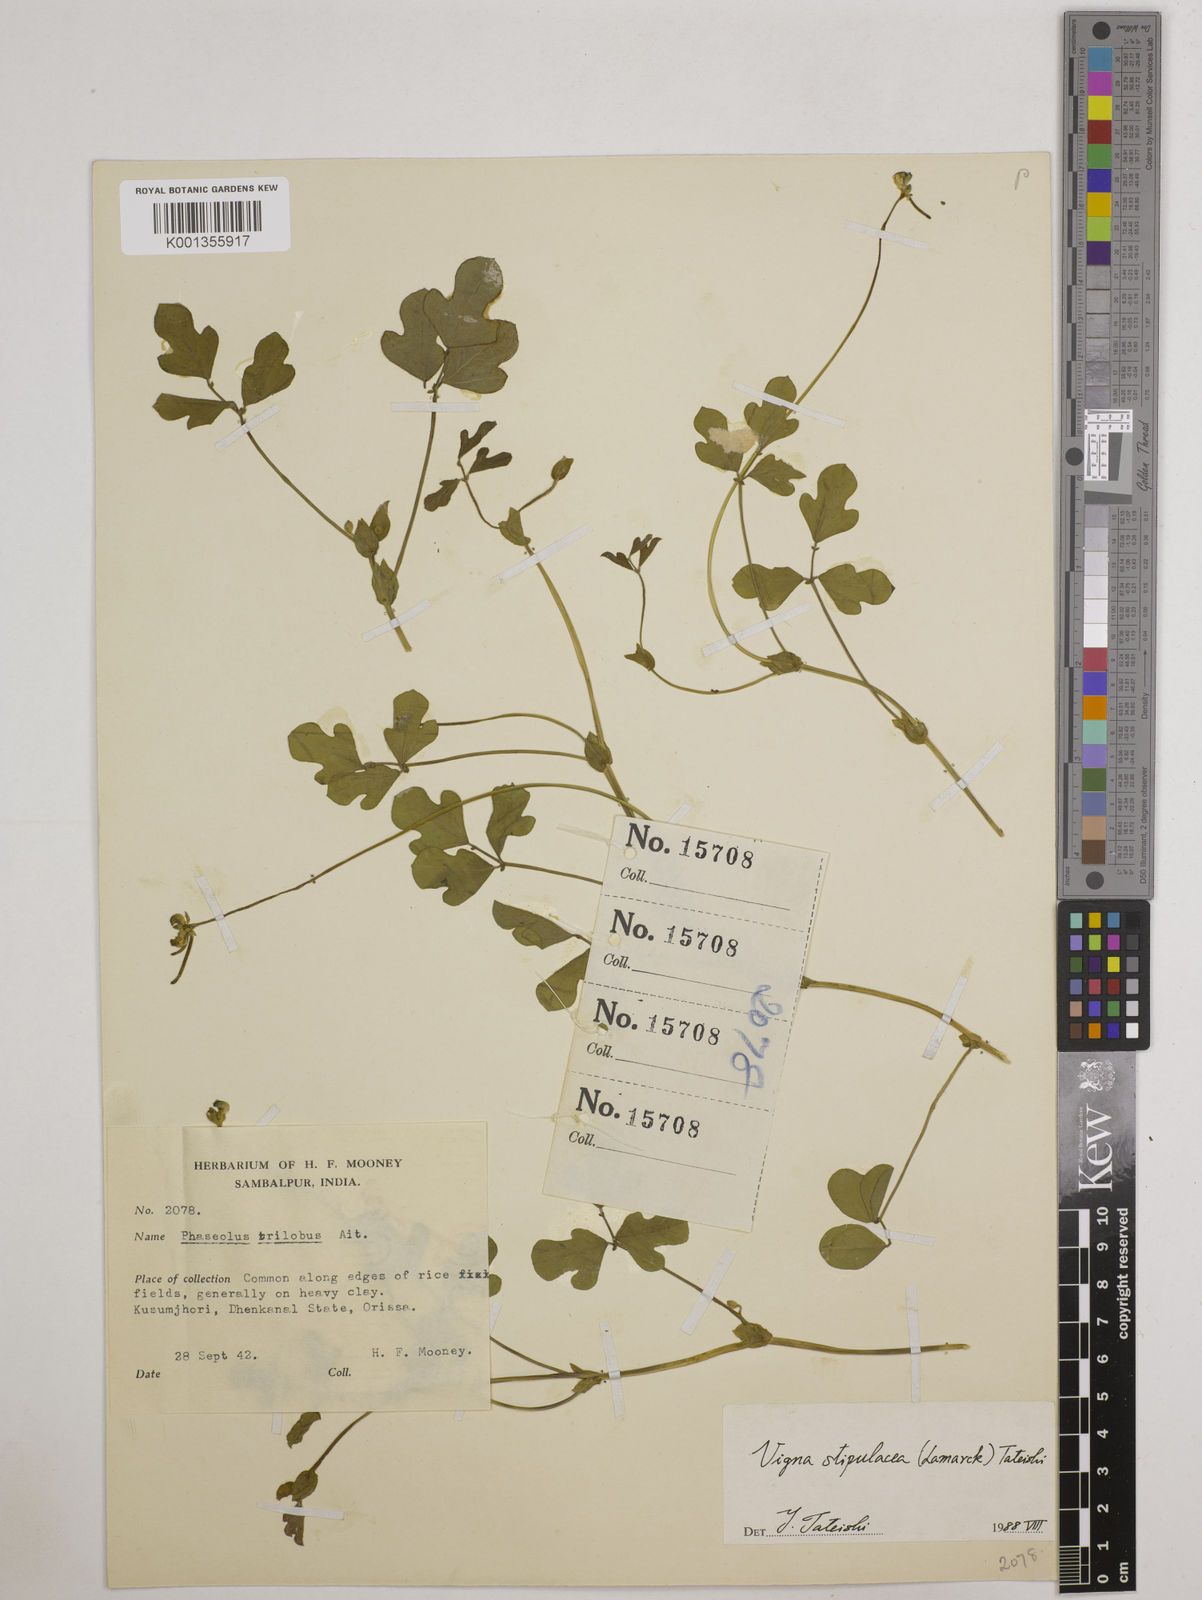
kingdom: Plantae
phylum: Tracheophyta
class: Magnoliopsida
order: Fabales
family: Fabaceae
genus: Pueraria
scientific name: Pueraria montana
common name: Kudzu
